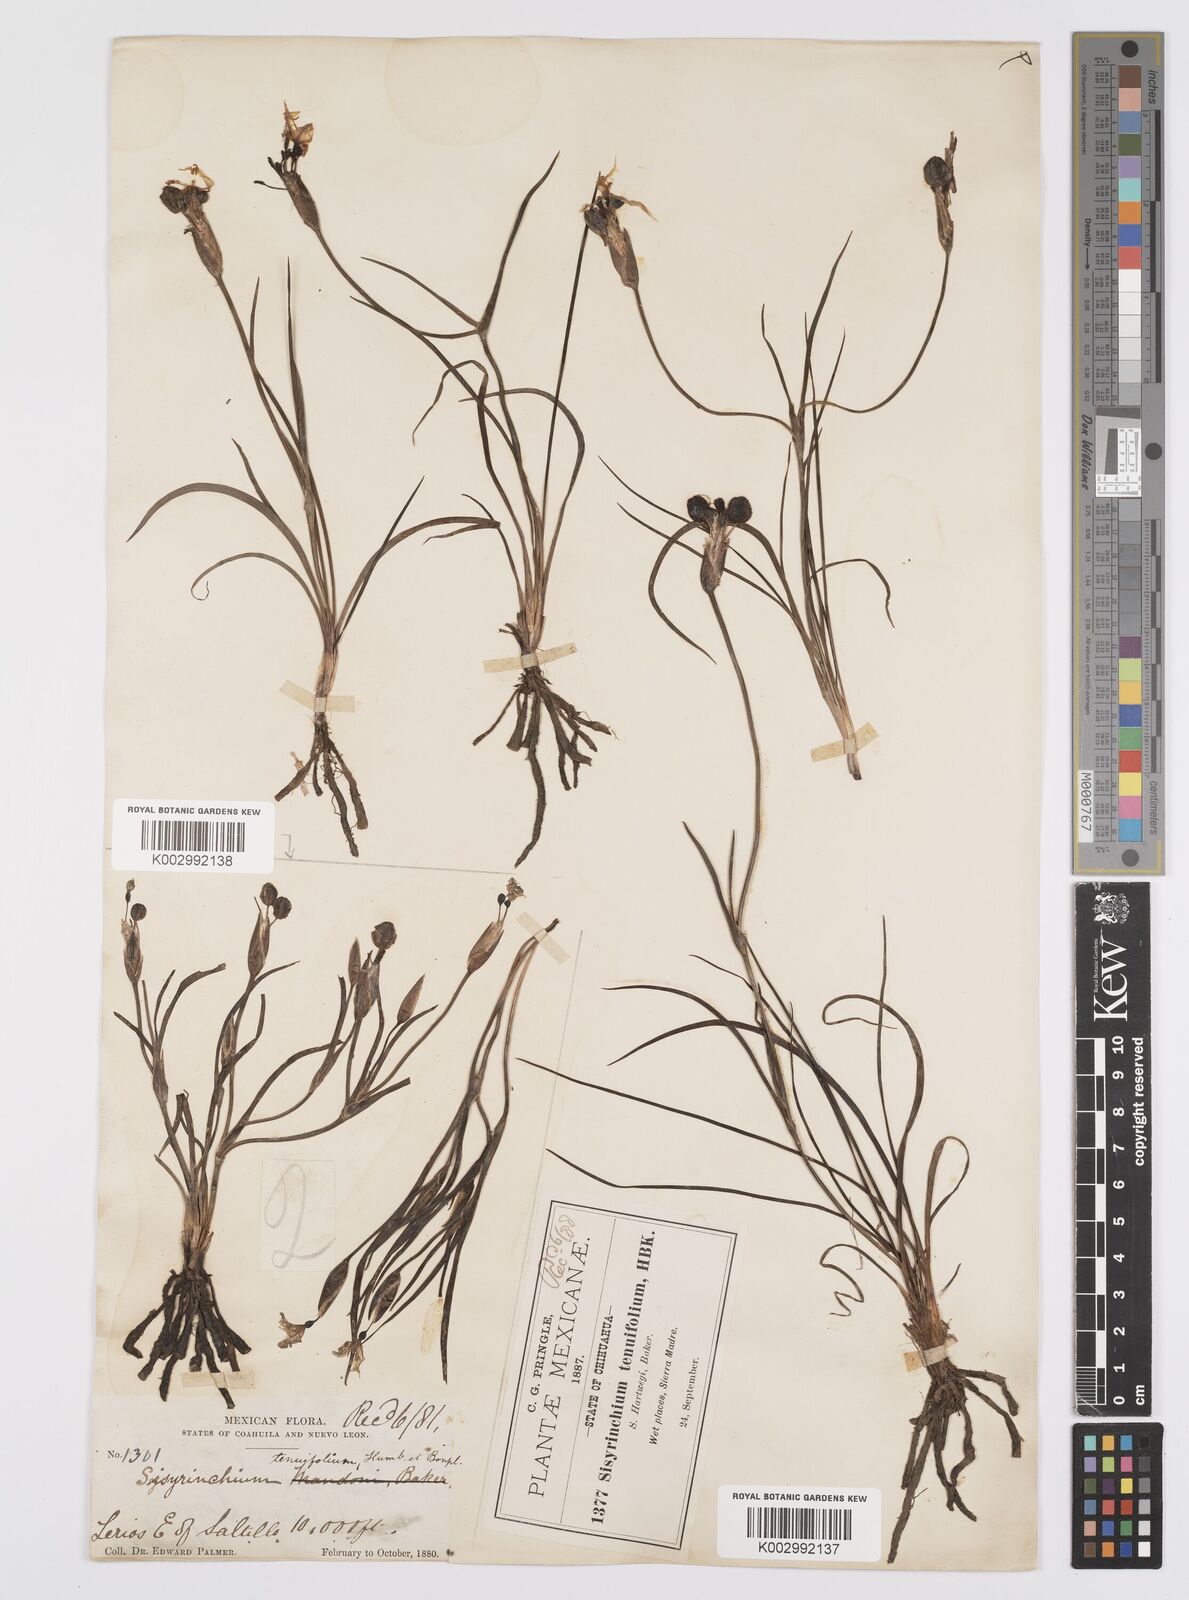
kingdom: Plantae
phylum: Tracheophyta
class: Liliopsida
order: Asparagales
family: Iridaceae
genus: Sisyrinchium
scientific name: Sisyrinchium langloisii
